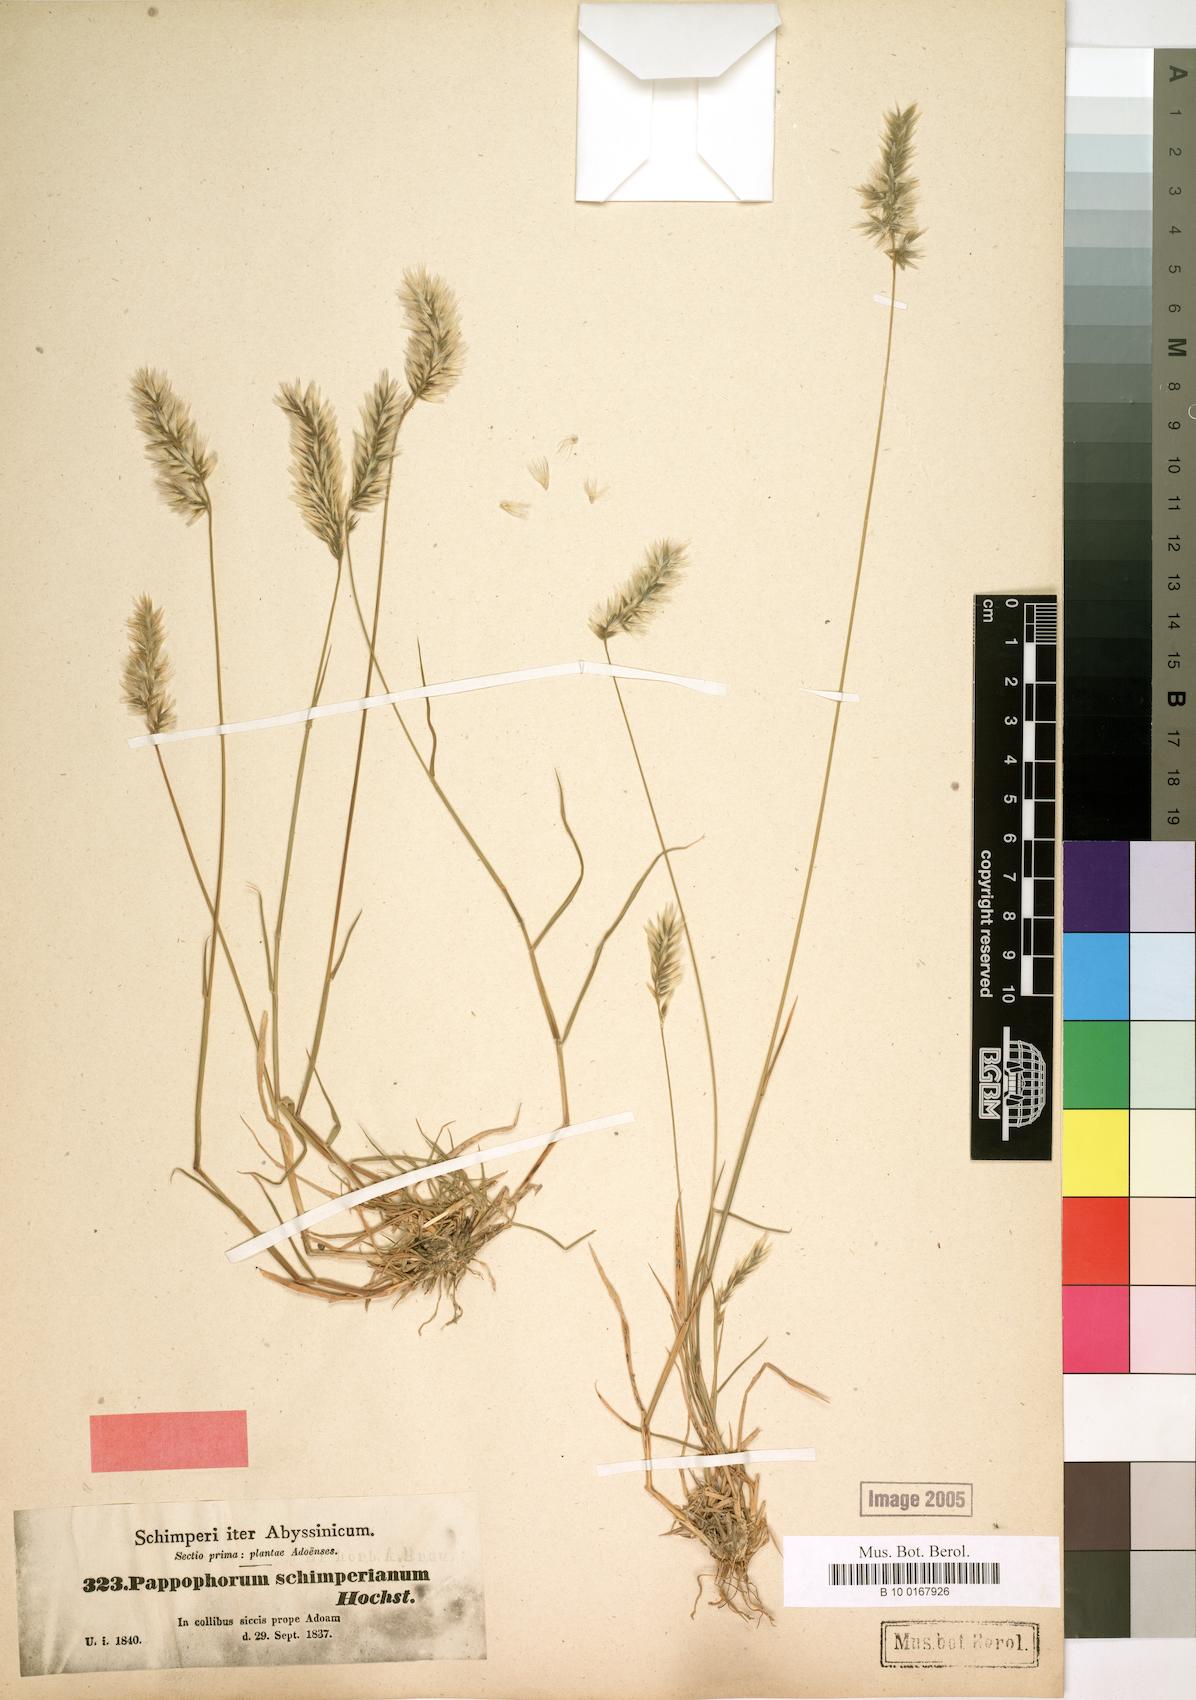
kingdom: Plantae
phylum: Tracheophyta
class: Liliopsida
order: Poales
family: Poaceae
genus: Enneapogon
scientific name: Enneapogon persicus
